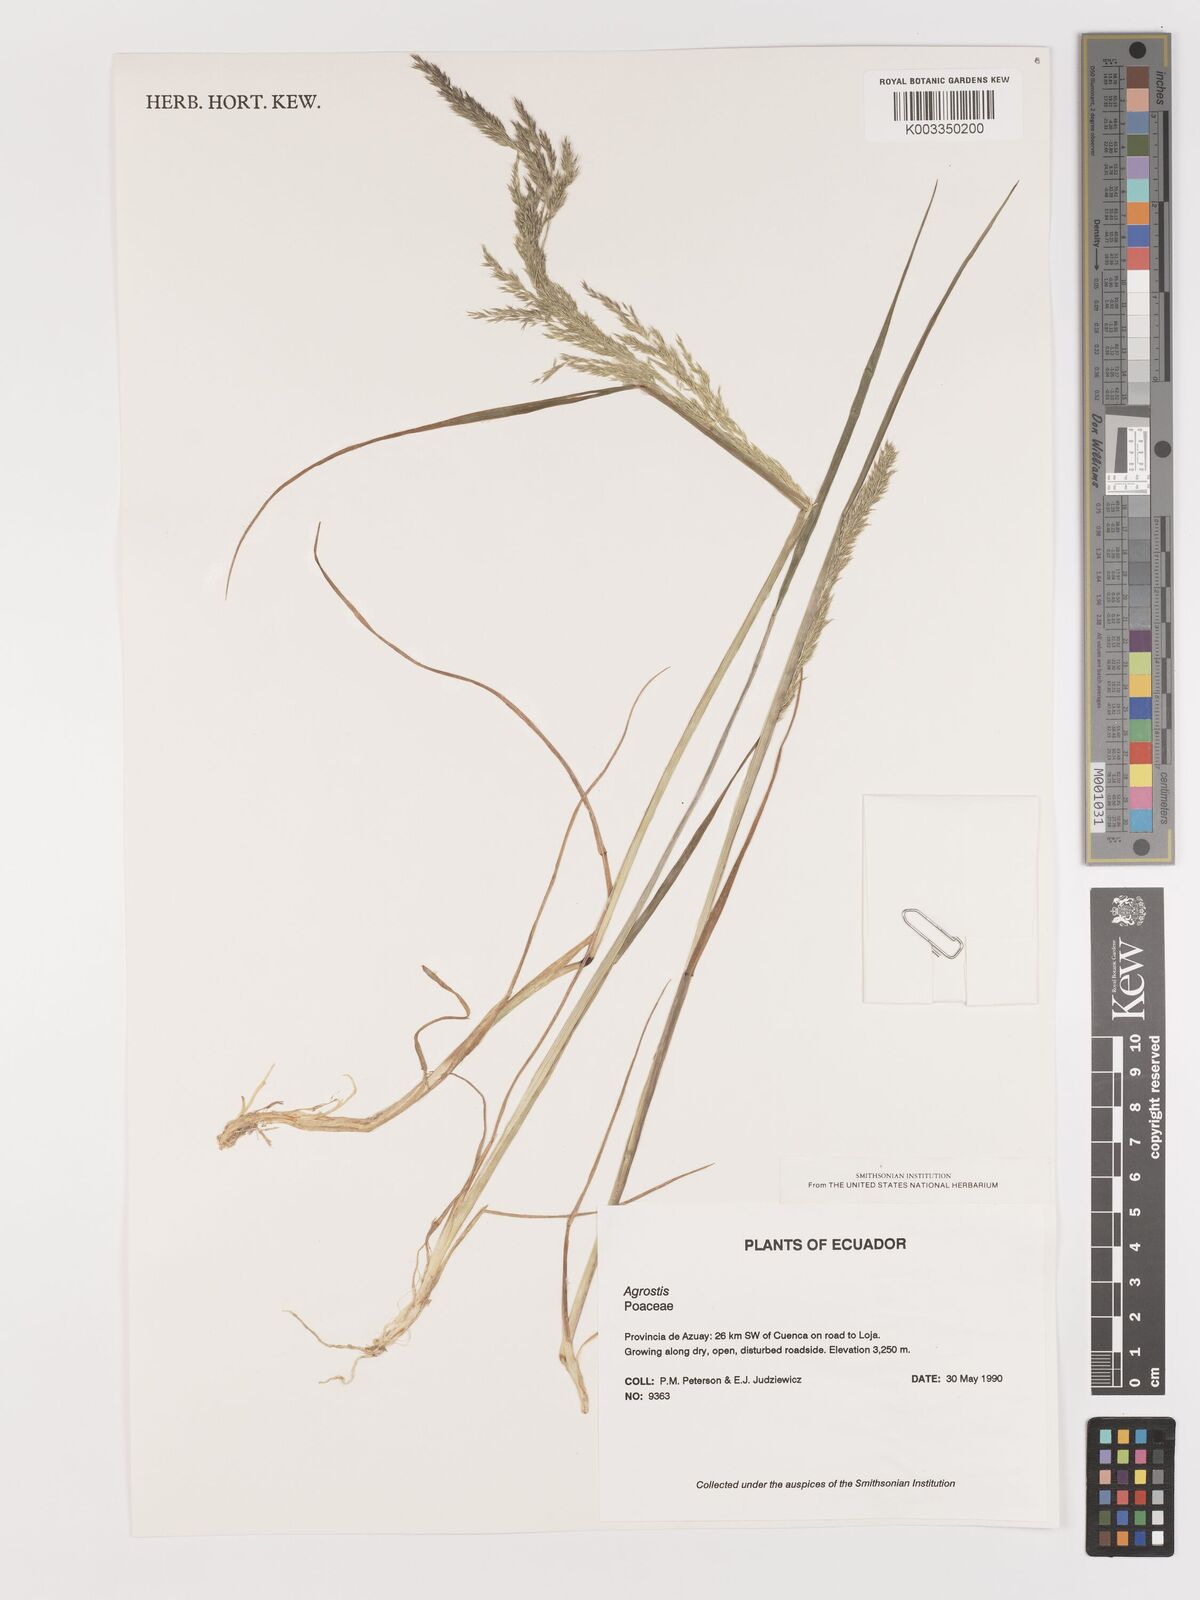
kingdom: Plantae
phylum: Tracheophyta
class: Liliopsida
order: Poales
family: Poaceae
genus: Agrostis
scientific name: Agrostis
